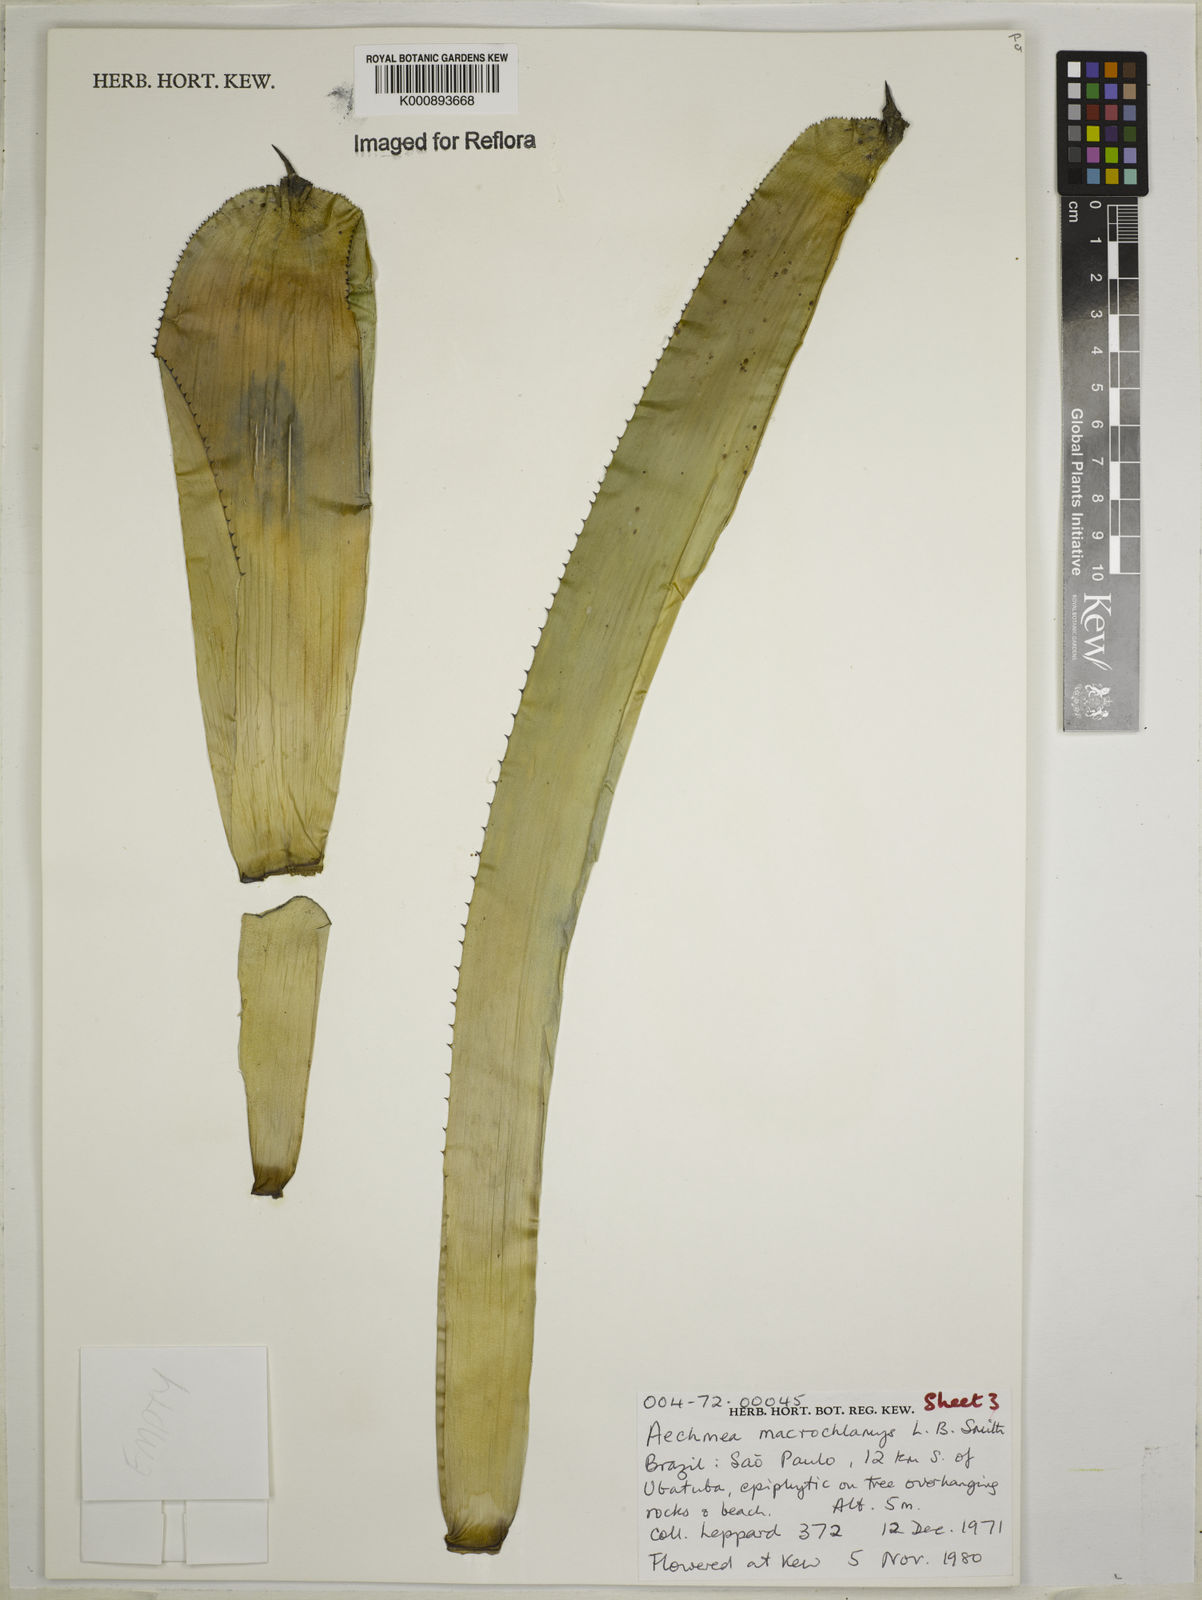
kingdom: Plantae
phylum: Tracheophyta
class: Liliopsida
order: Poales
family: Bromeliaceae
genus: Aechmea
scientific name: Aechmea macrochlamys
